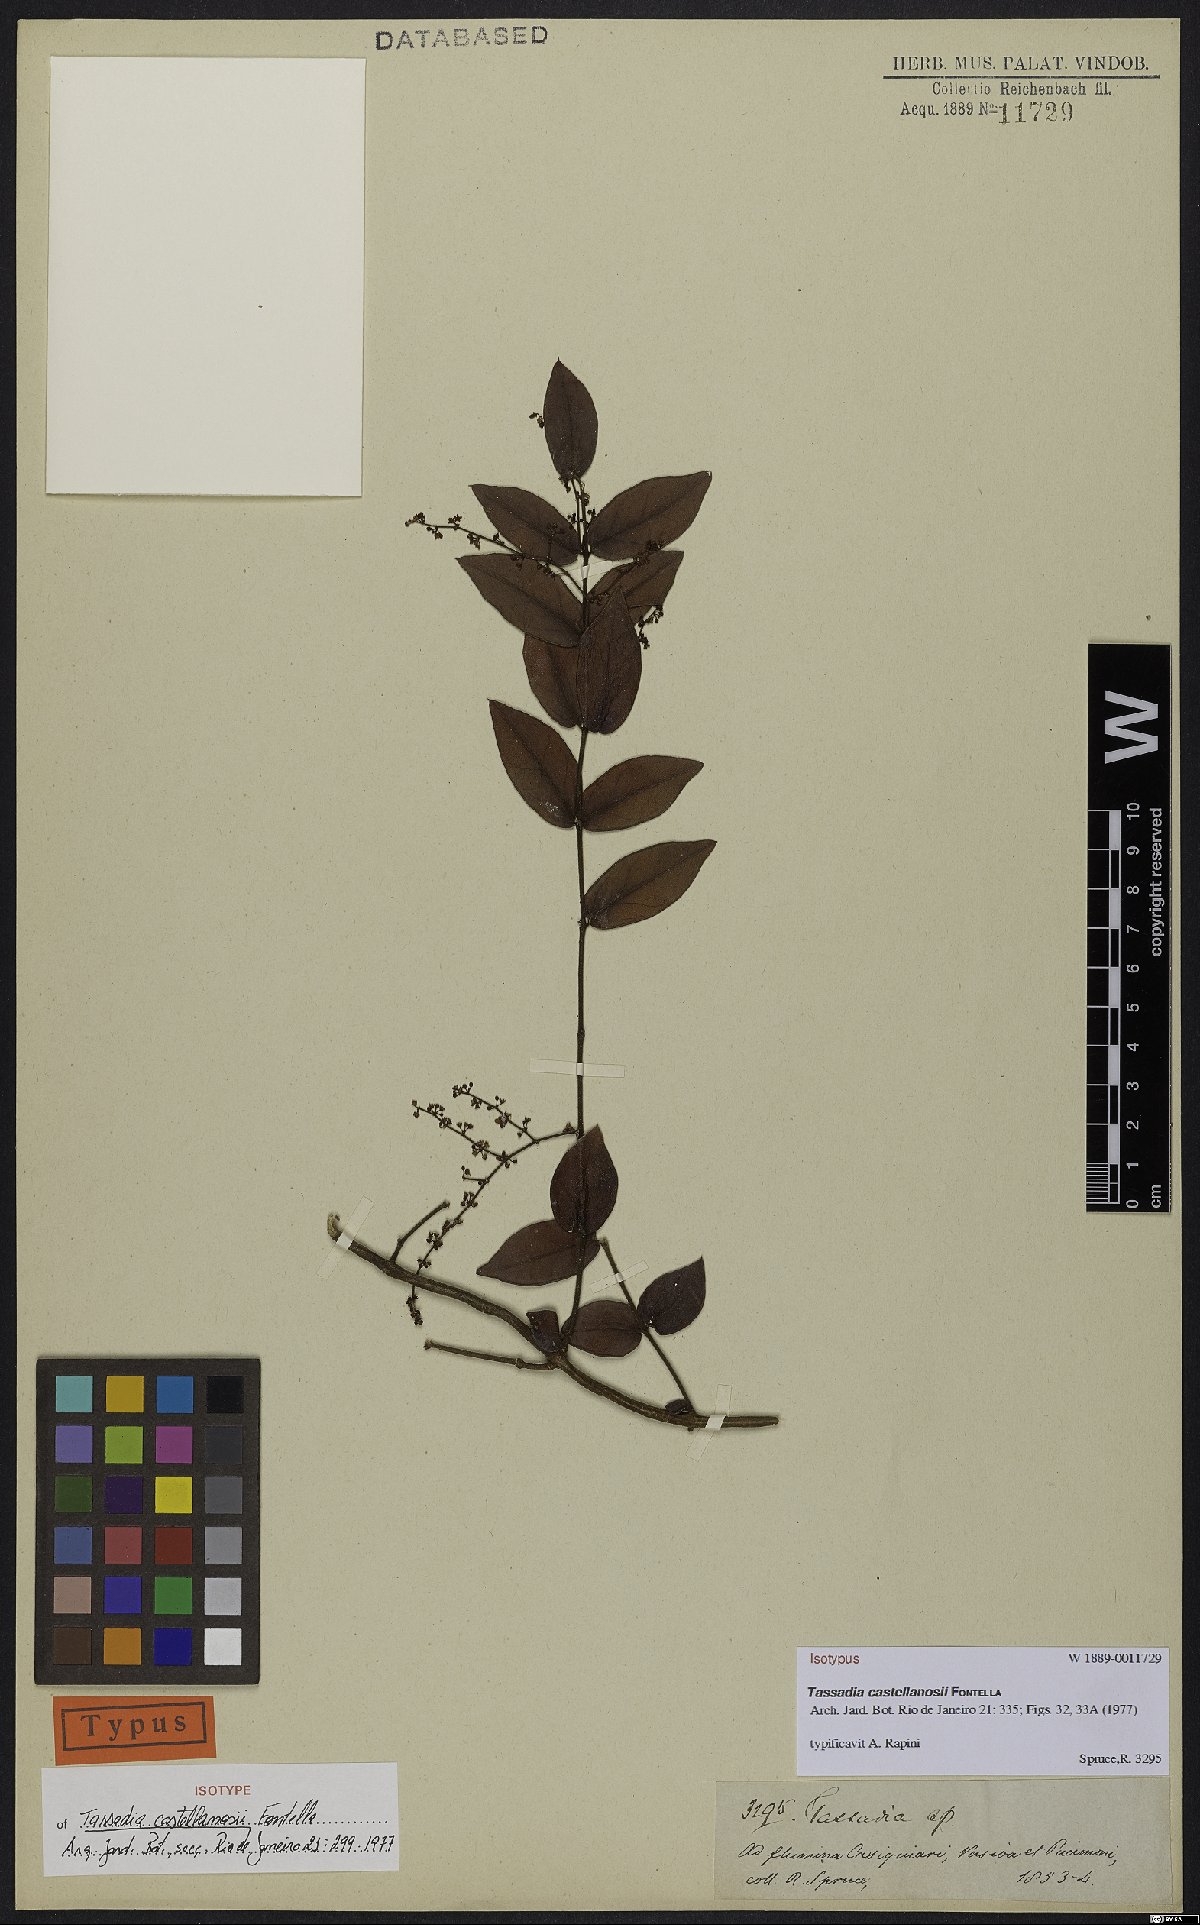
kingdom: Plantae
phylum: Tracheophyta
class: Magnoliopsida
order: Gentianales
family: Apocynaceae
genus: Tassadia
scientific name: Tassadia castellanosii
